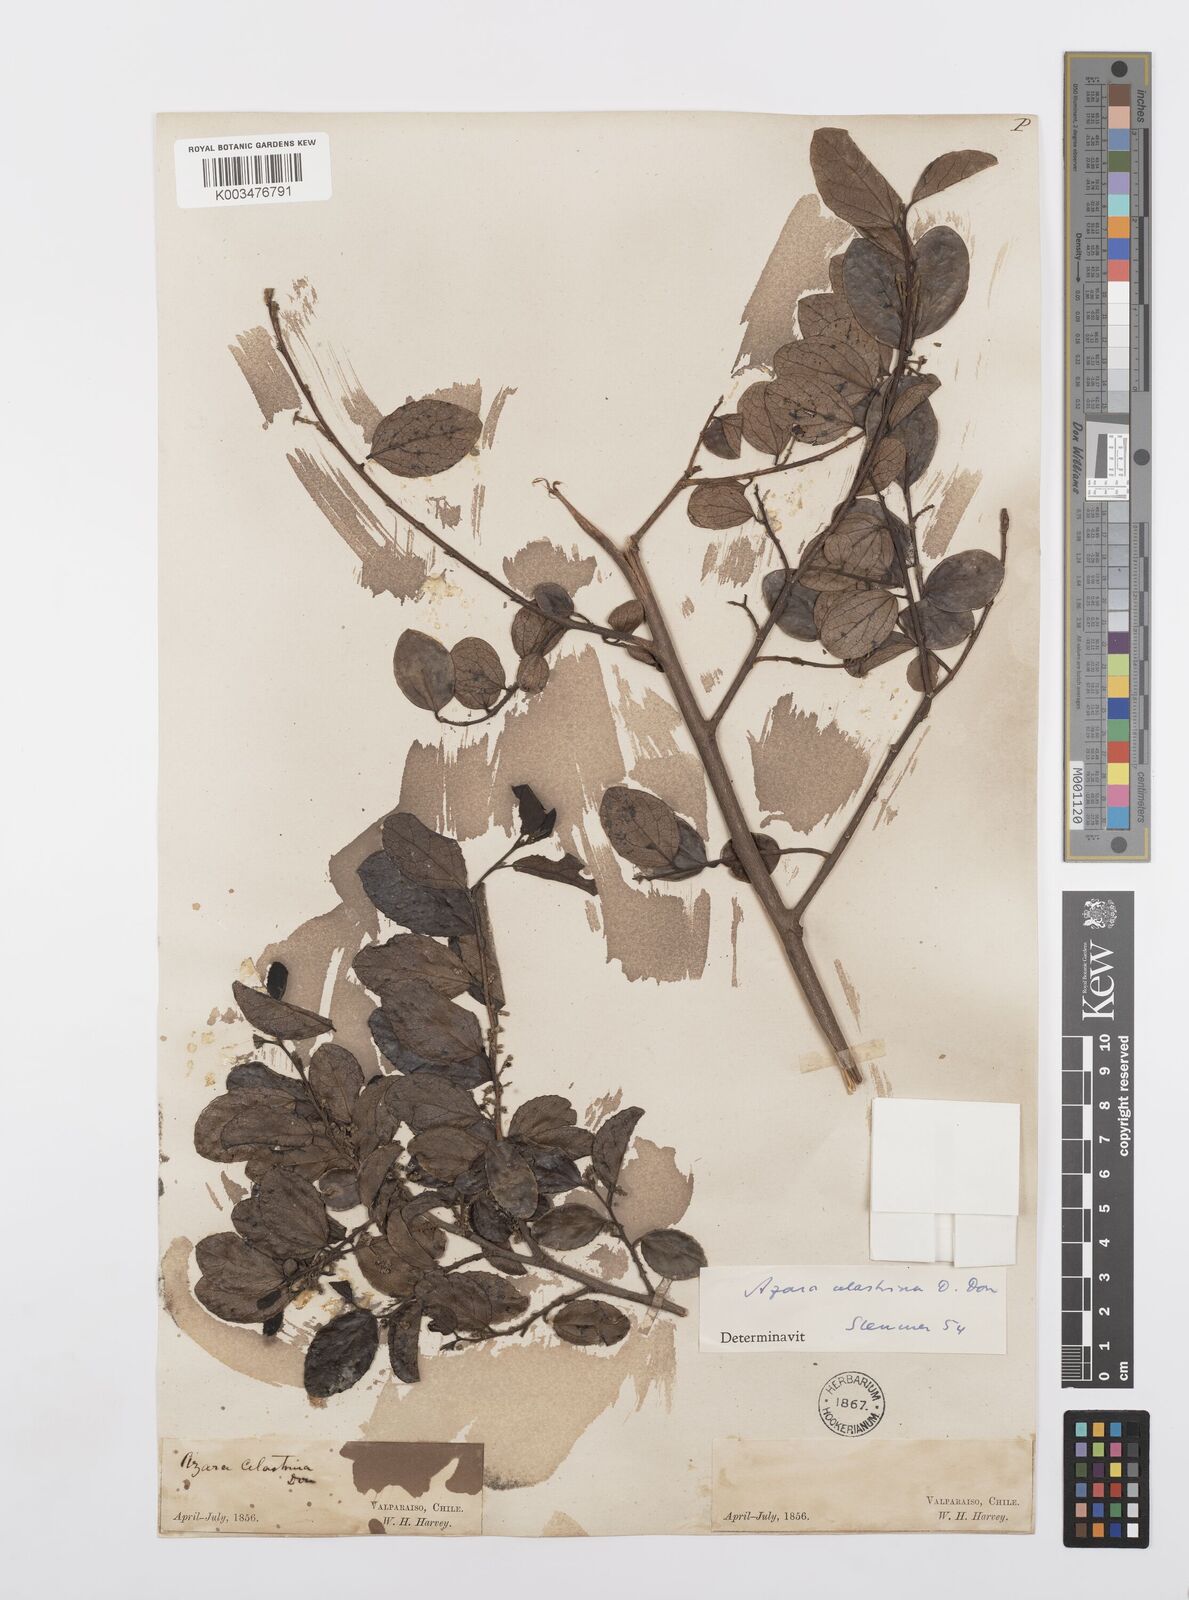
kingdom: Plantae
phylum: Tracheophyta
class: Magnoliopsida
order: Malpighiales
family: Salicaceae
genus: Azara
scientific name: Azara celastrina
